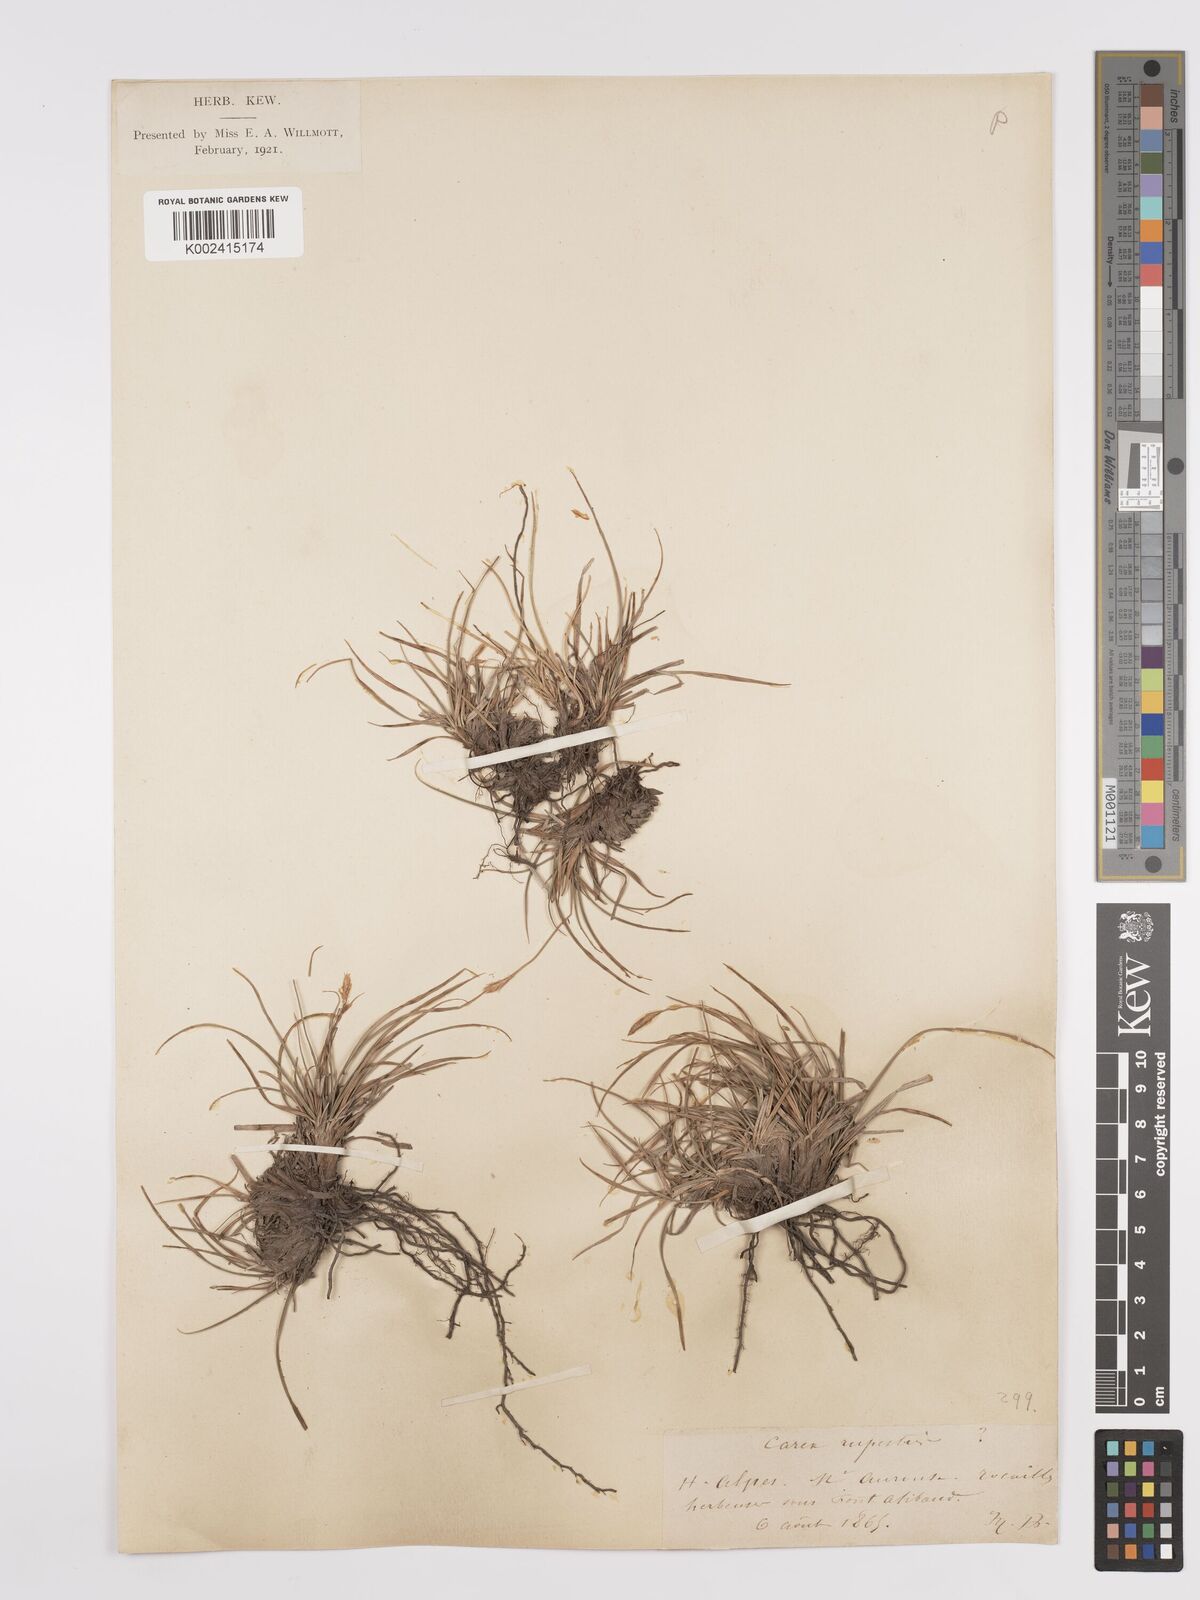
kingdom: Plantae
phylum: Tracheophyta
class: Liliopsida
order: Poales
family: Cyperaceae
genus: Carex
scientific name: Carex rupestris
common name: Rock sedge
